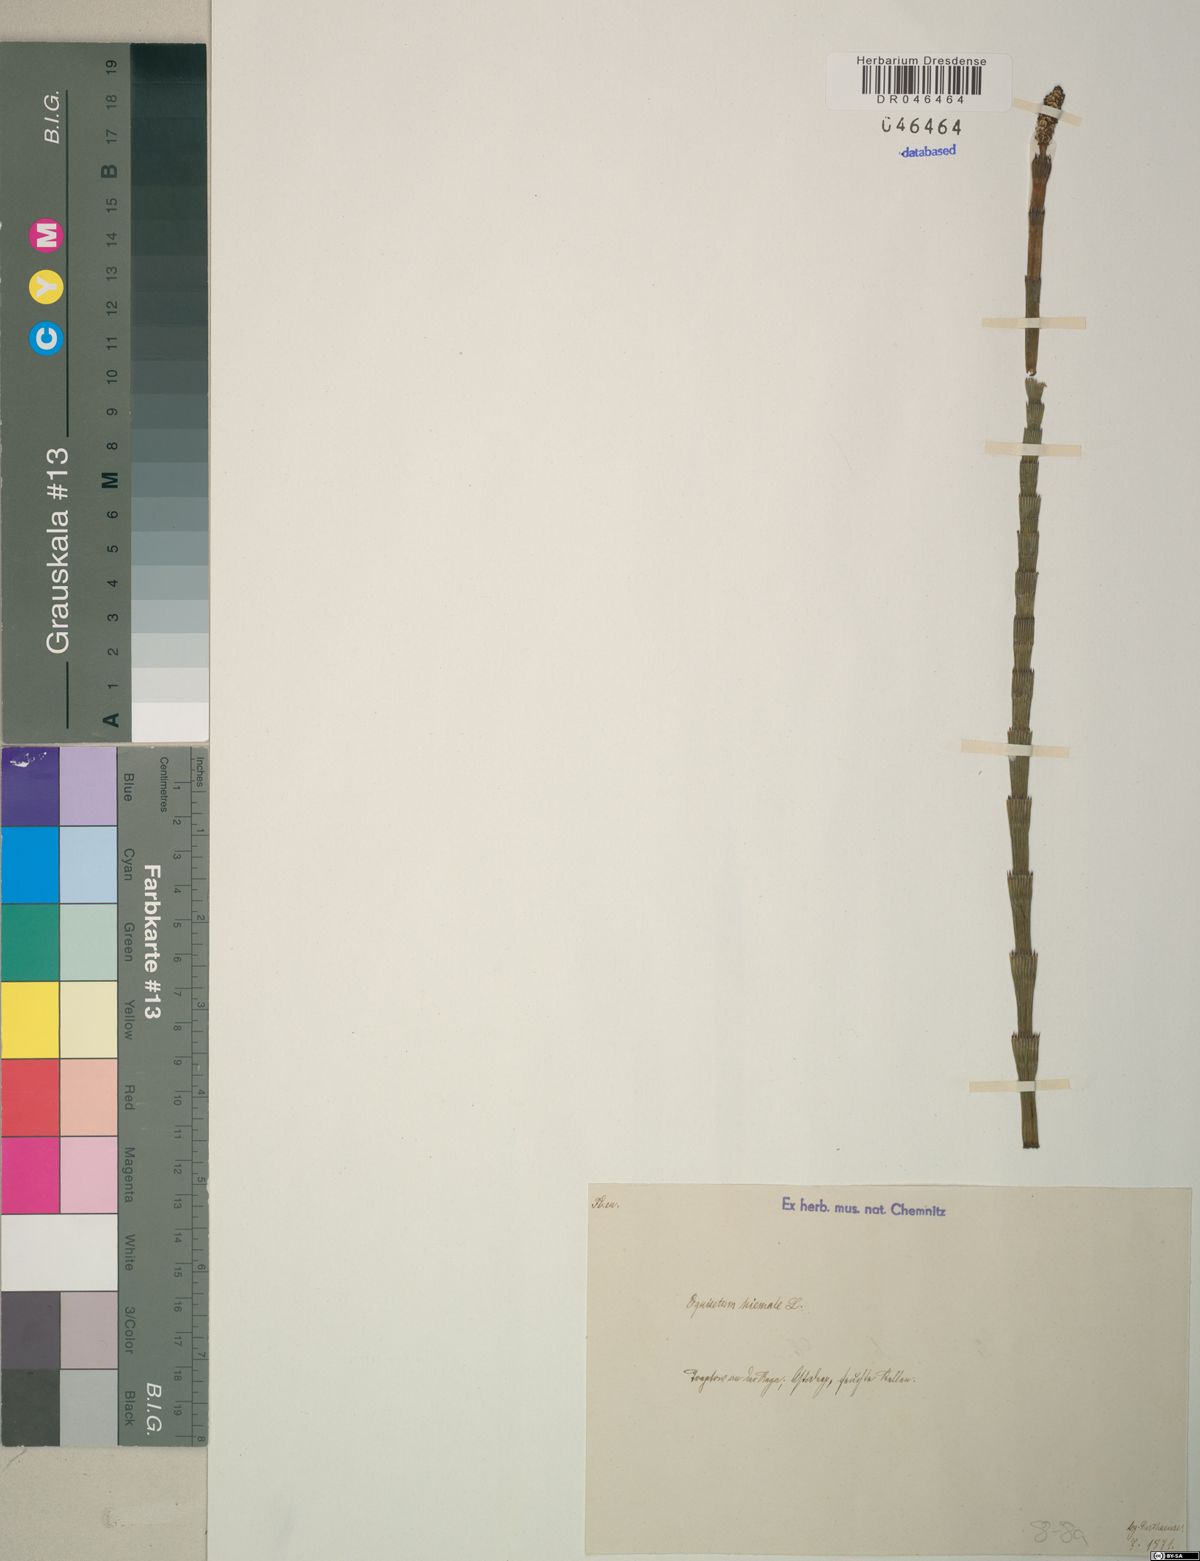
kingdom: Plantae
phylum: Tracheophyta
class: Polypodiopsida
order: Equisetales
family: Equisetaceae
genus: Equisetum
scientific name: Equisetum hyemale
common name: Rough horsetail
